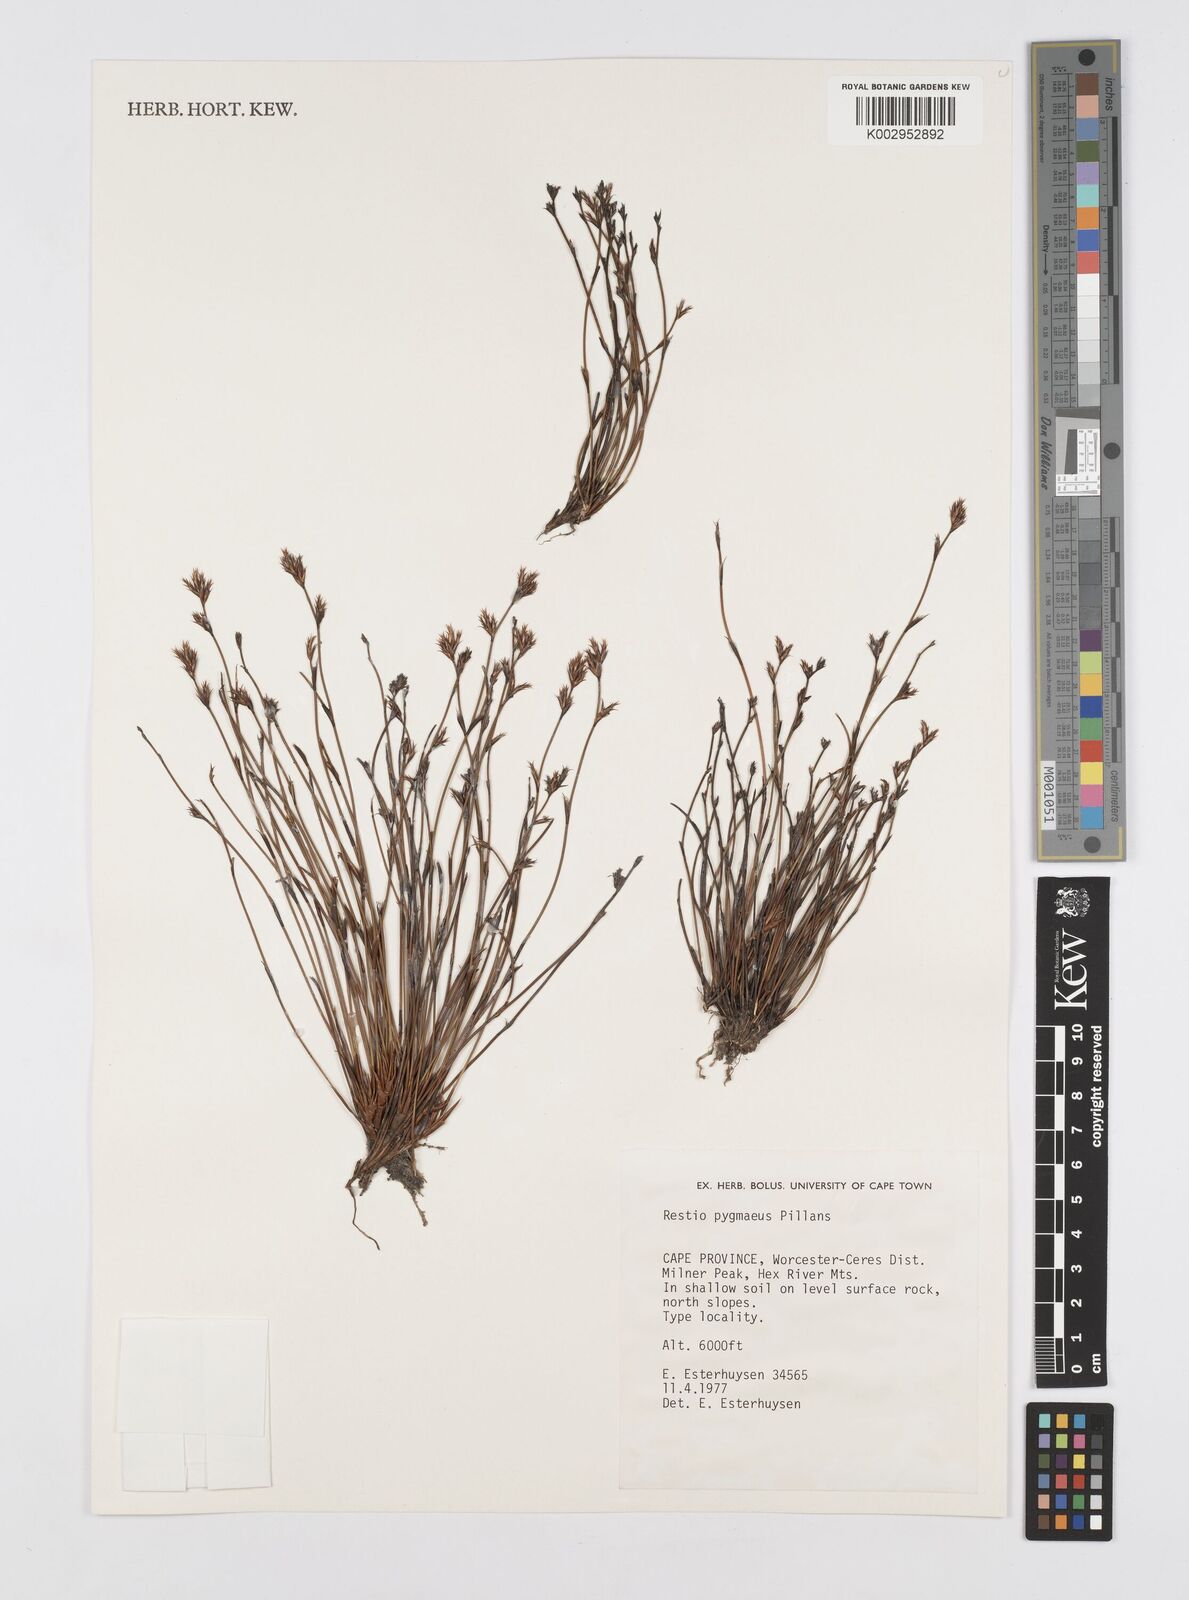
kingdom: Plantae
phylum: Tracheophyta
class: Liliopsida
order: Poales
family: Restionaceae
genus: Restio
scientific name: Restio pygmaeus
